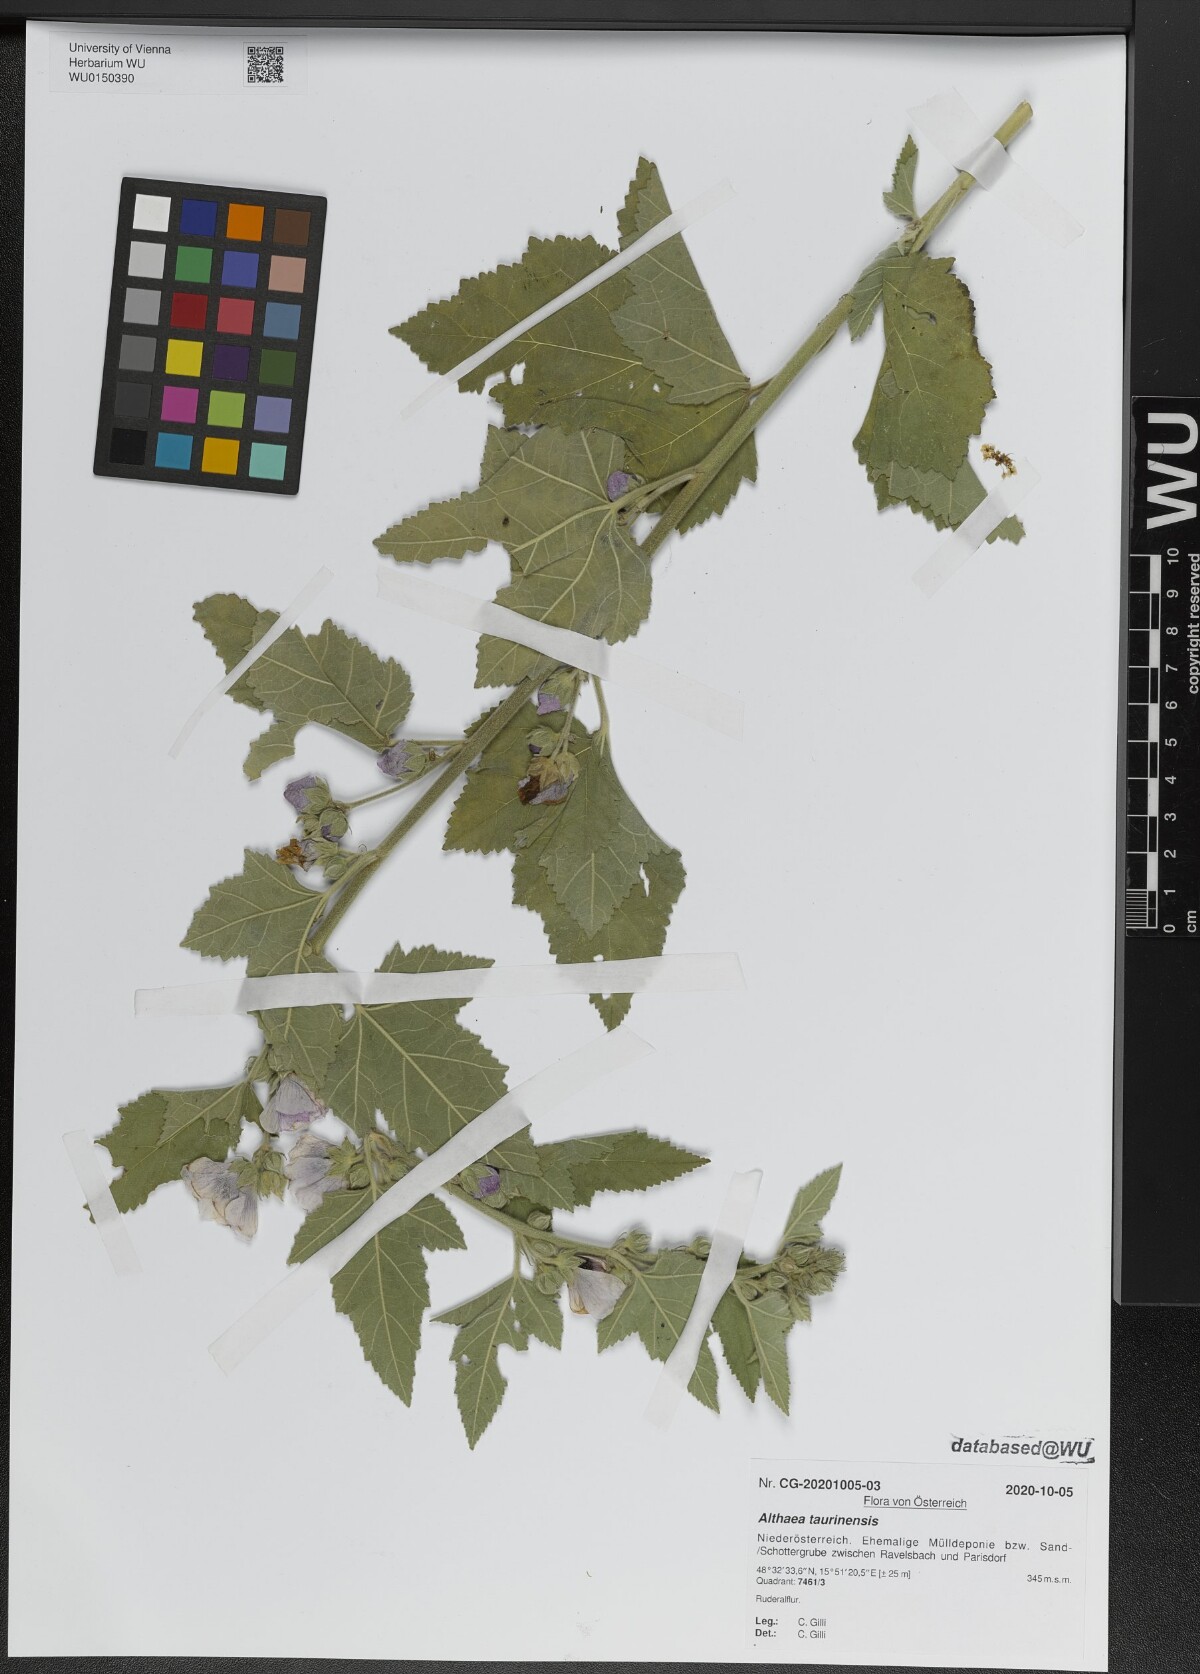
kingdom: Plantae
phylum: Tracheophyta
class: Magnoliopsida
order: Malvales
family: Malvaceae
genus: Althaea
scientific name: Althaea taurinensis
